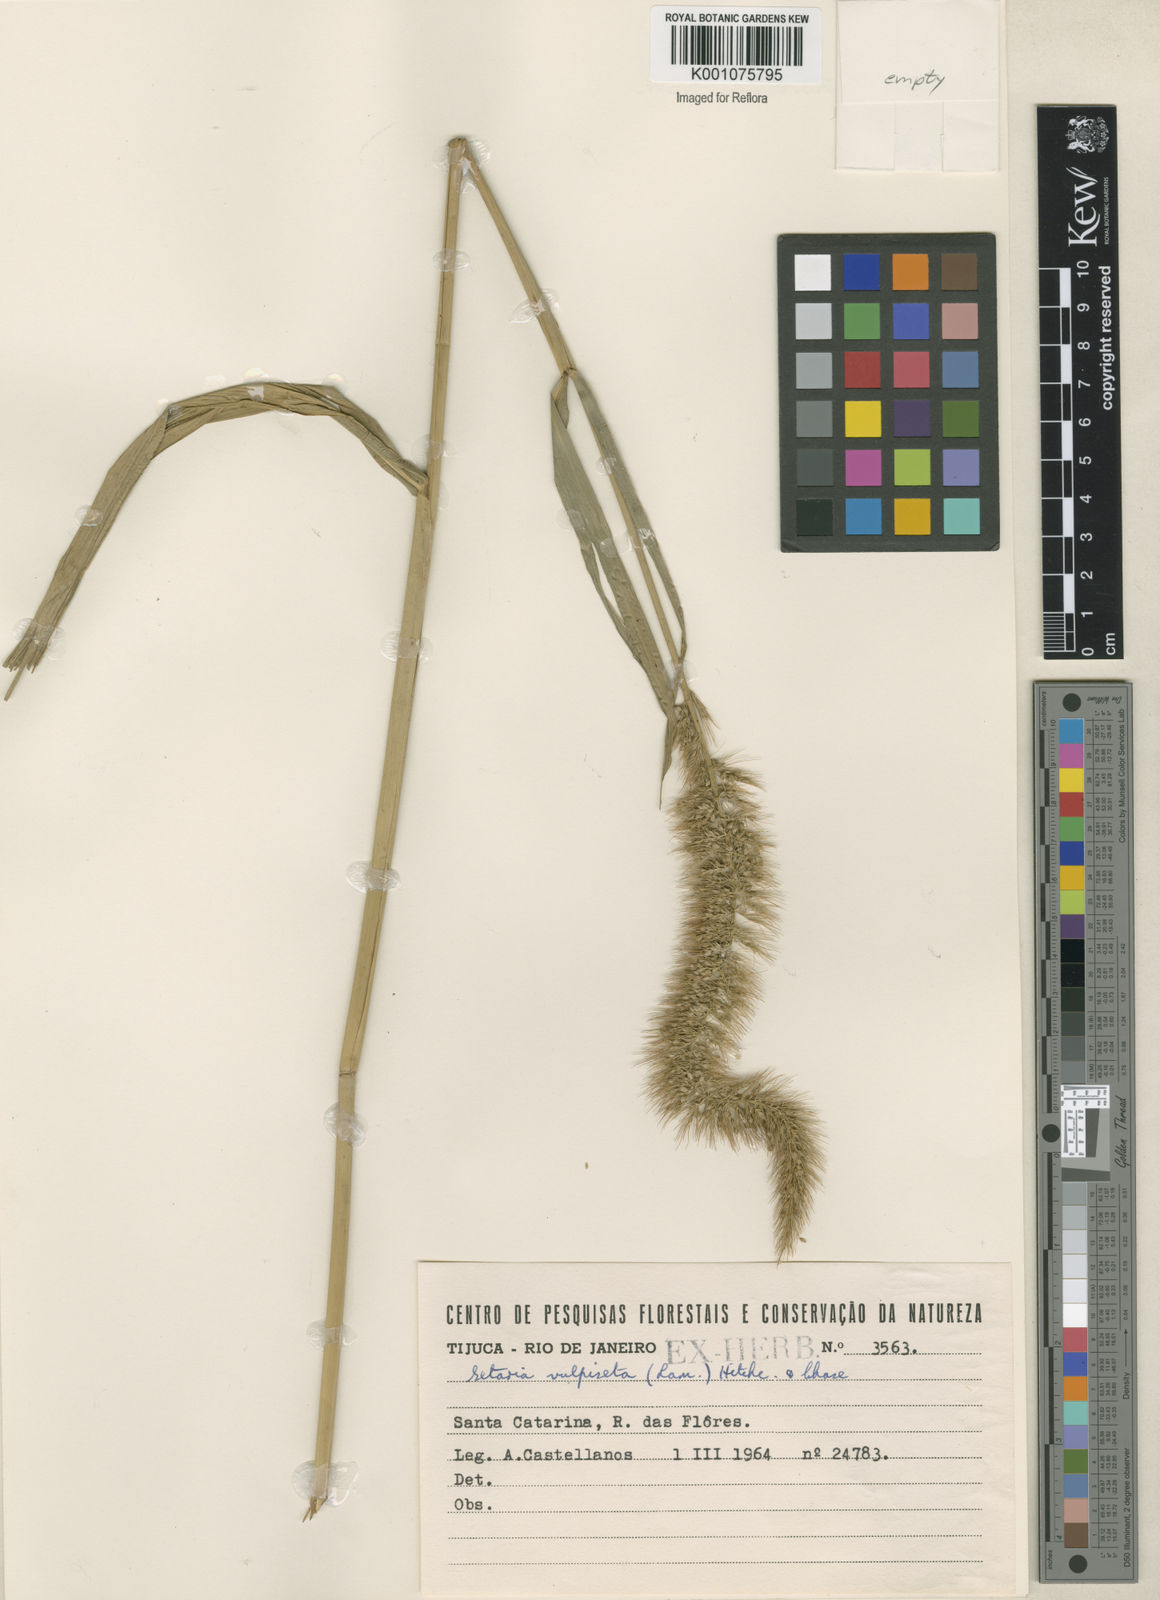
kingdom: Plantae
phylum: Tracheophyta
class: Liliopsida
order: Poales
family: Poaceae
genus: Setaria
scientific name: Setaria vulpiseta
